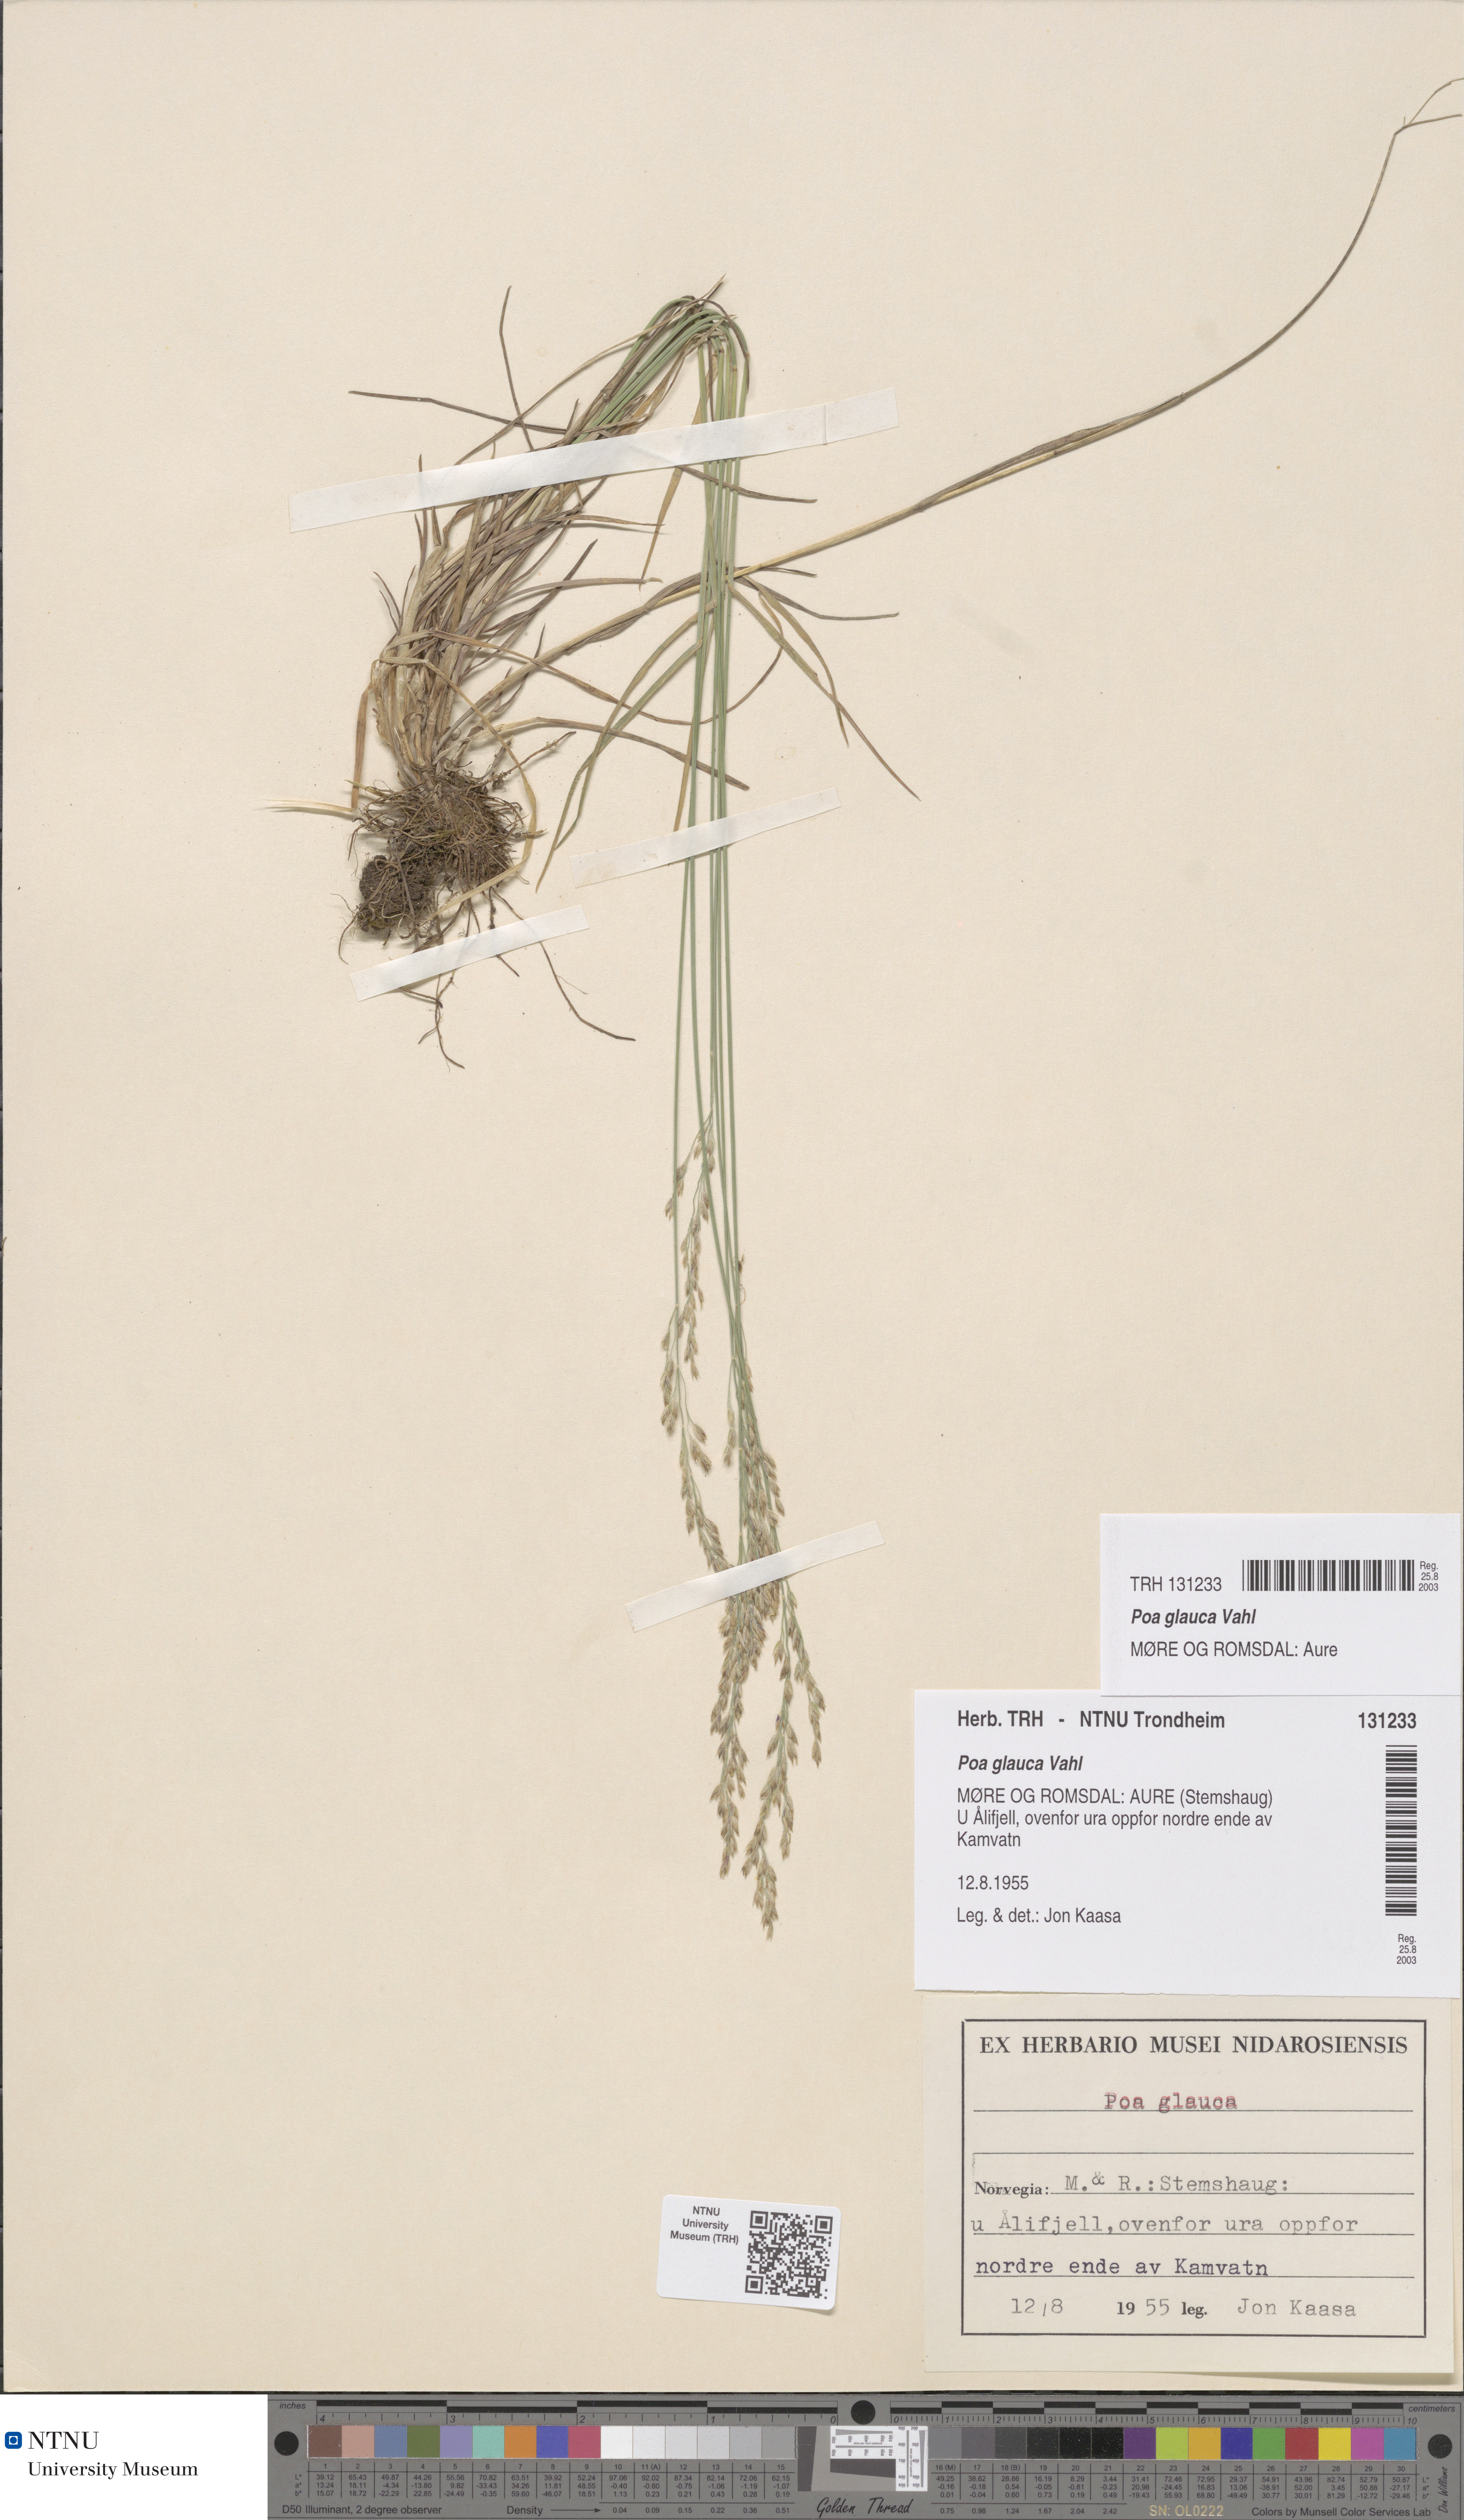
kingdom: Plantae
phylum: Tracheophyta
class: Liliopsida
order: Poales
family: Poaceae
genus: Poa
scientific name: Poa glauca
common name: Glaucous bluegrass
